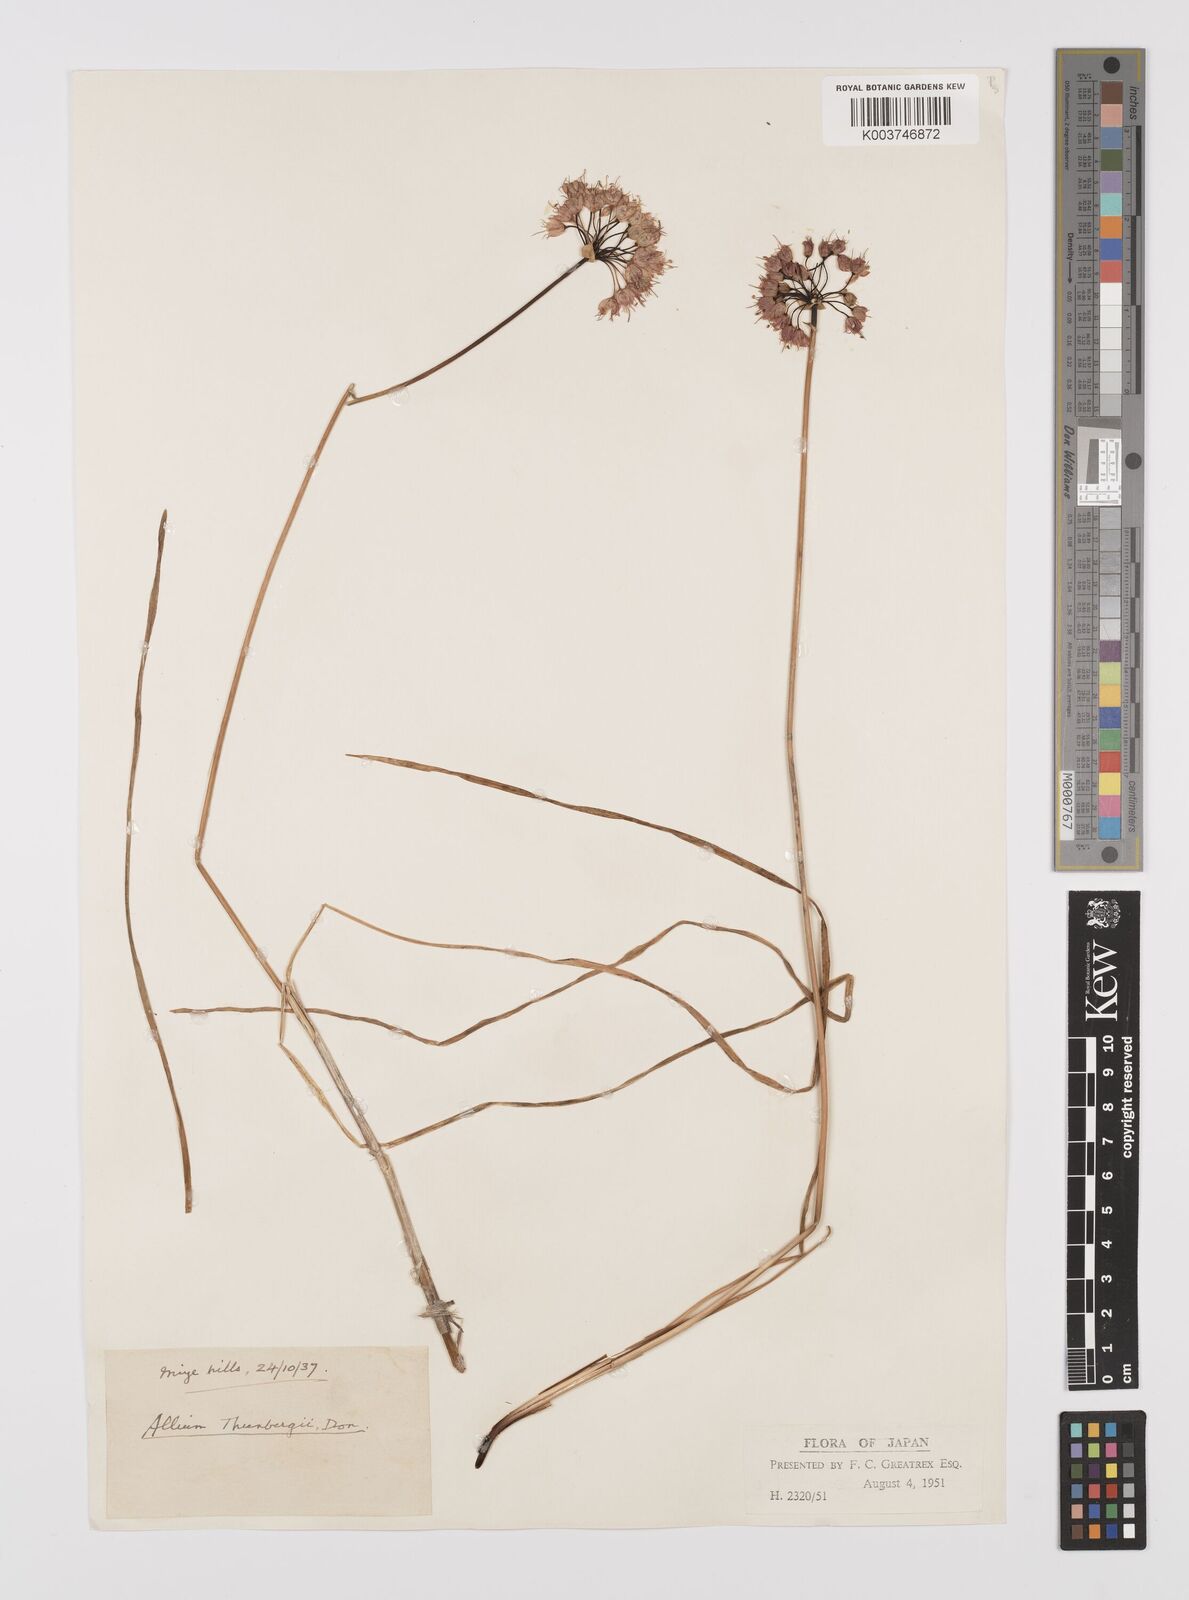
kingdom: Plantae
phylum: Tracheophyta
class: Liliopsida
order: Asparagales
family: Amaryllidaceae
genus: Allium
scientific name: Allium thunbergii
